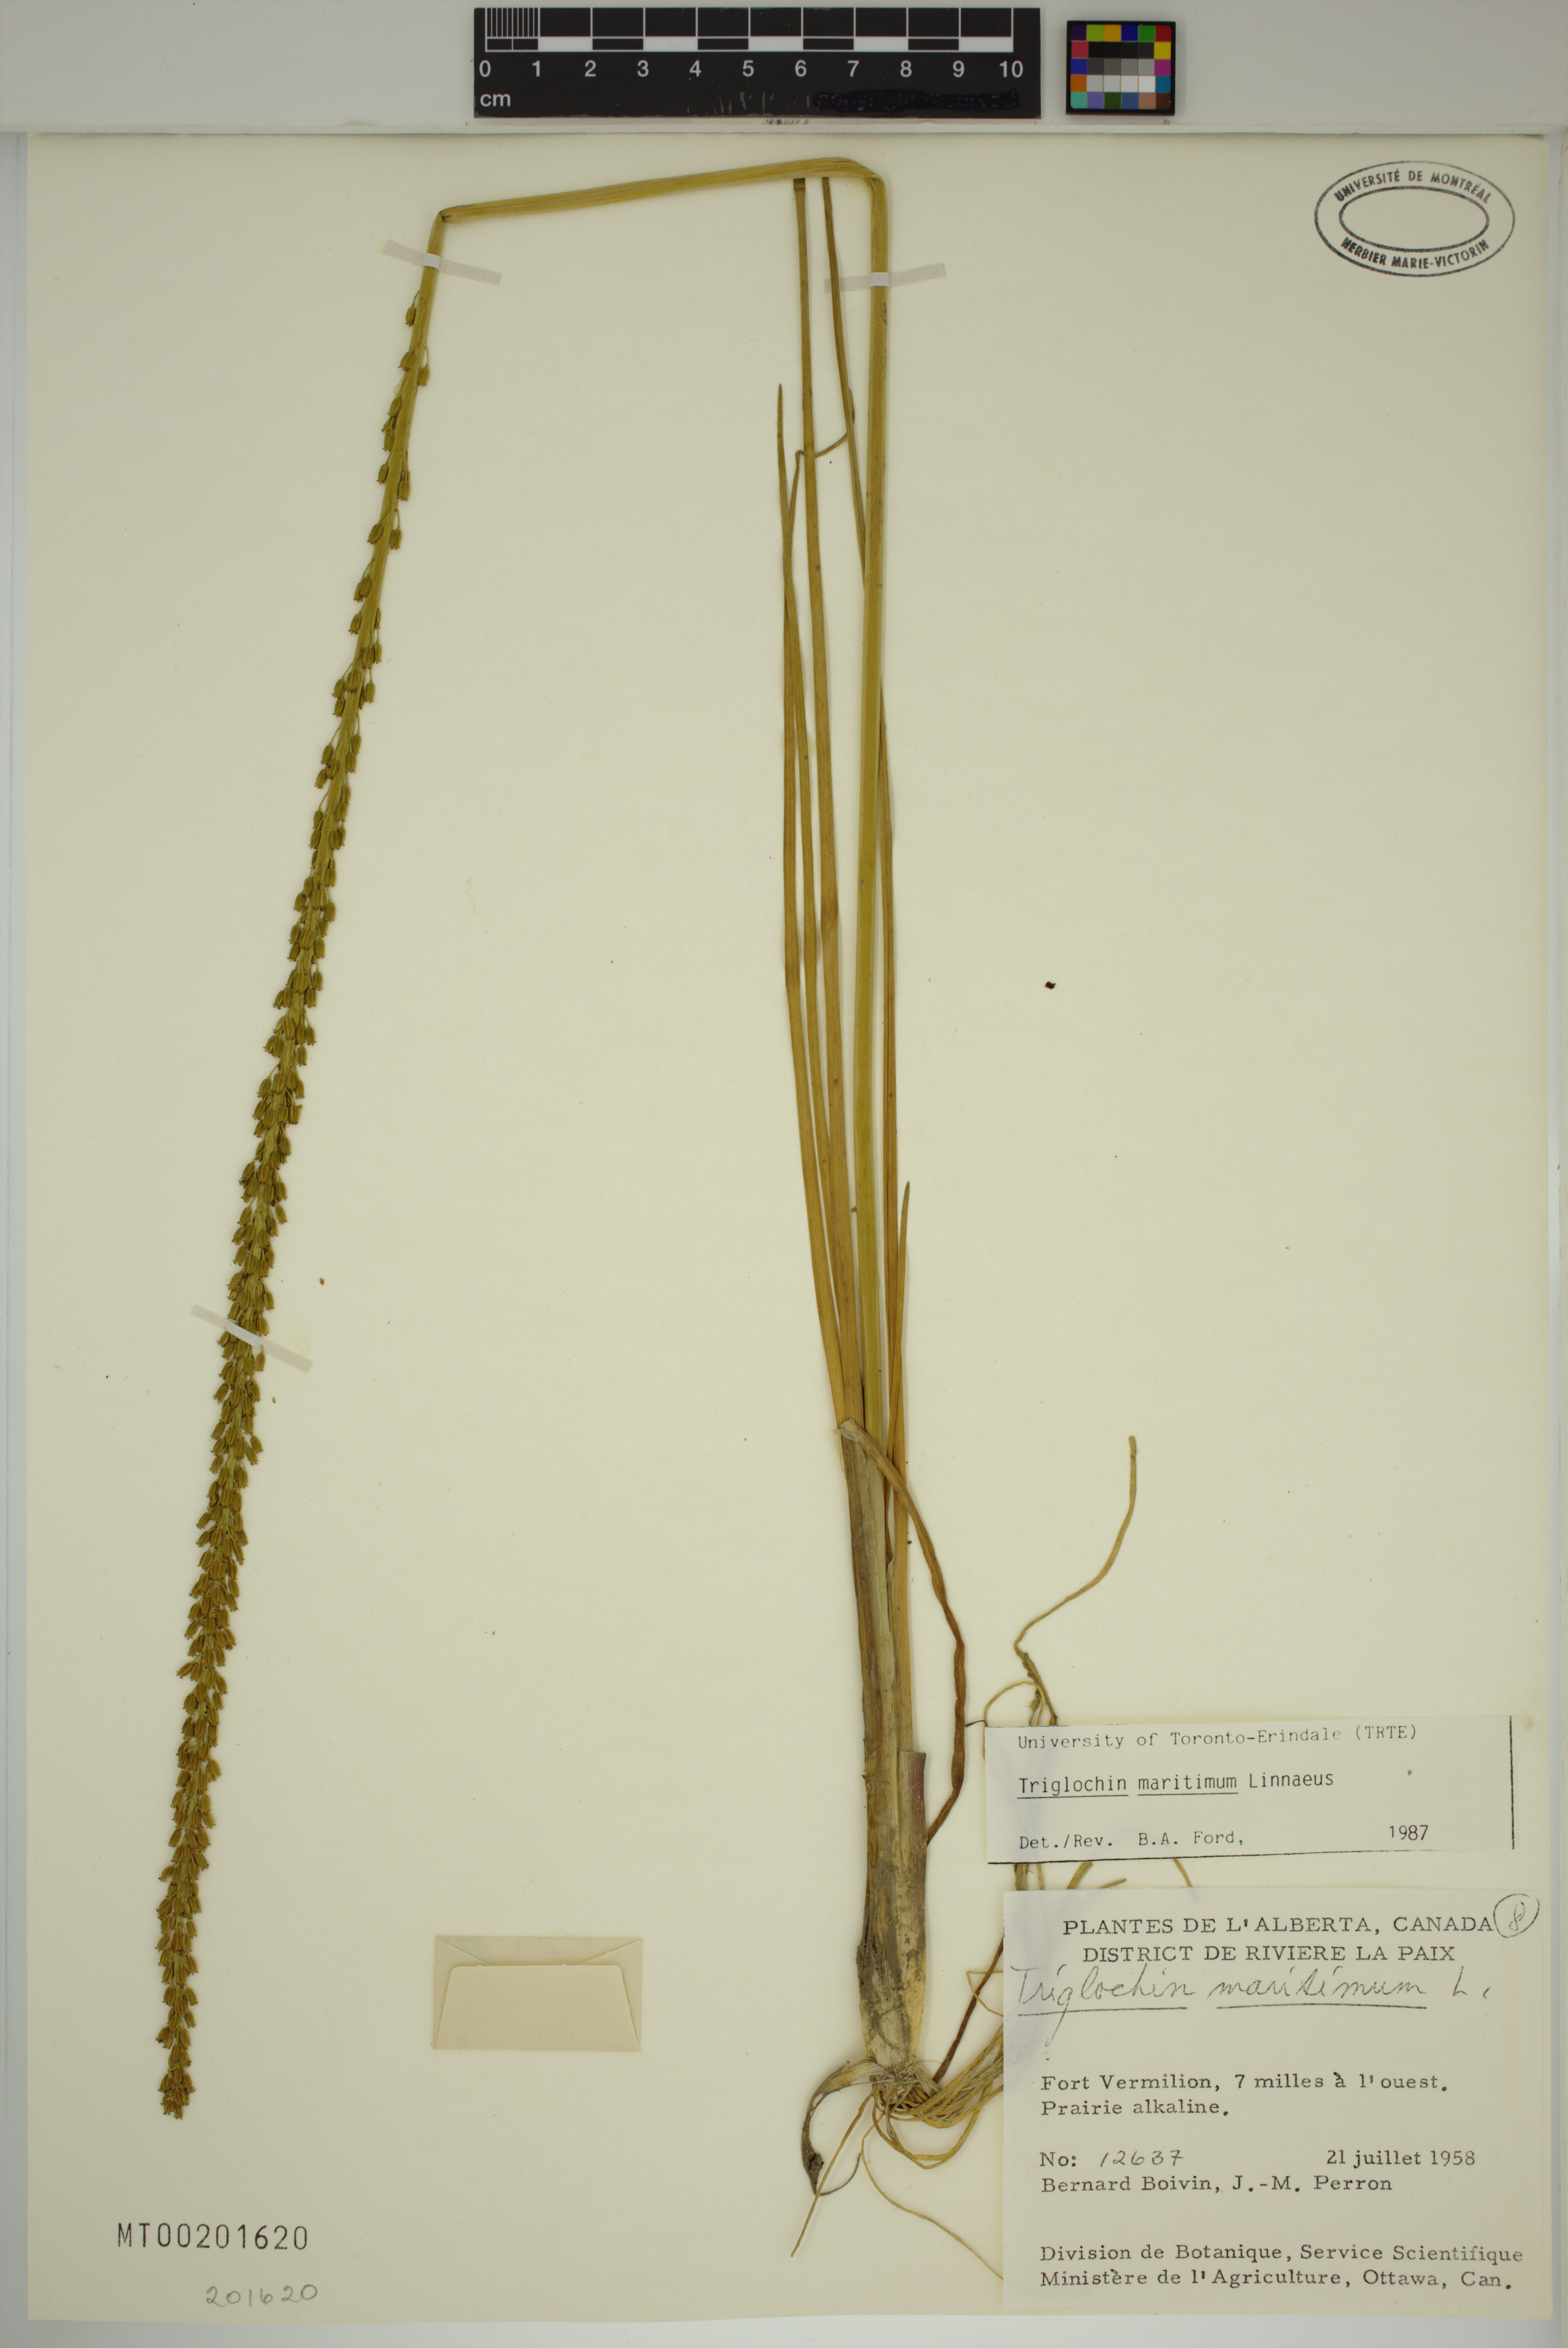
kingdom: Plantae
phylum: Tracheophyta
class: Liliopsida
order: Alismatales
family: Juncaginaceae
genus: Triglochin
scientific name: Triglochin maritima
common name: Sea arrowgrass
